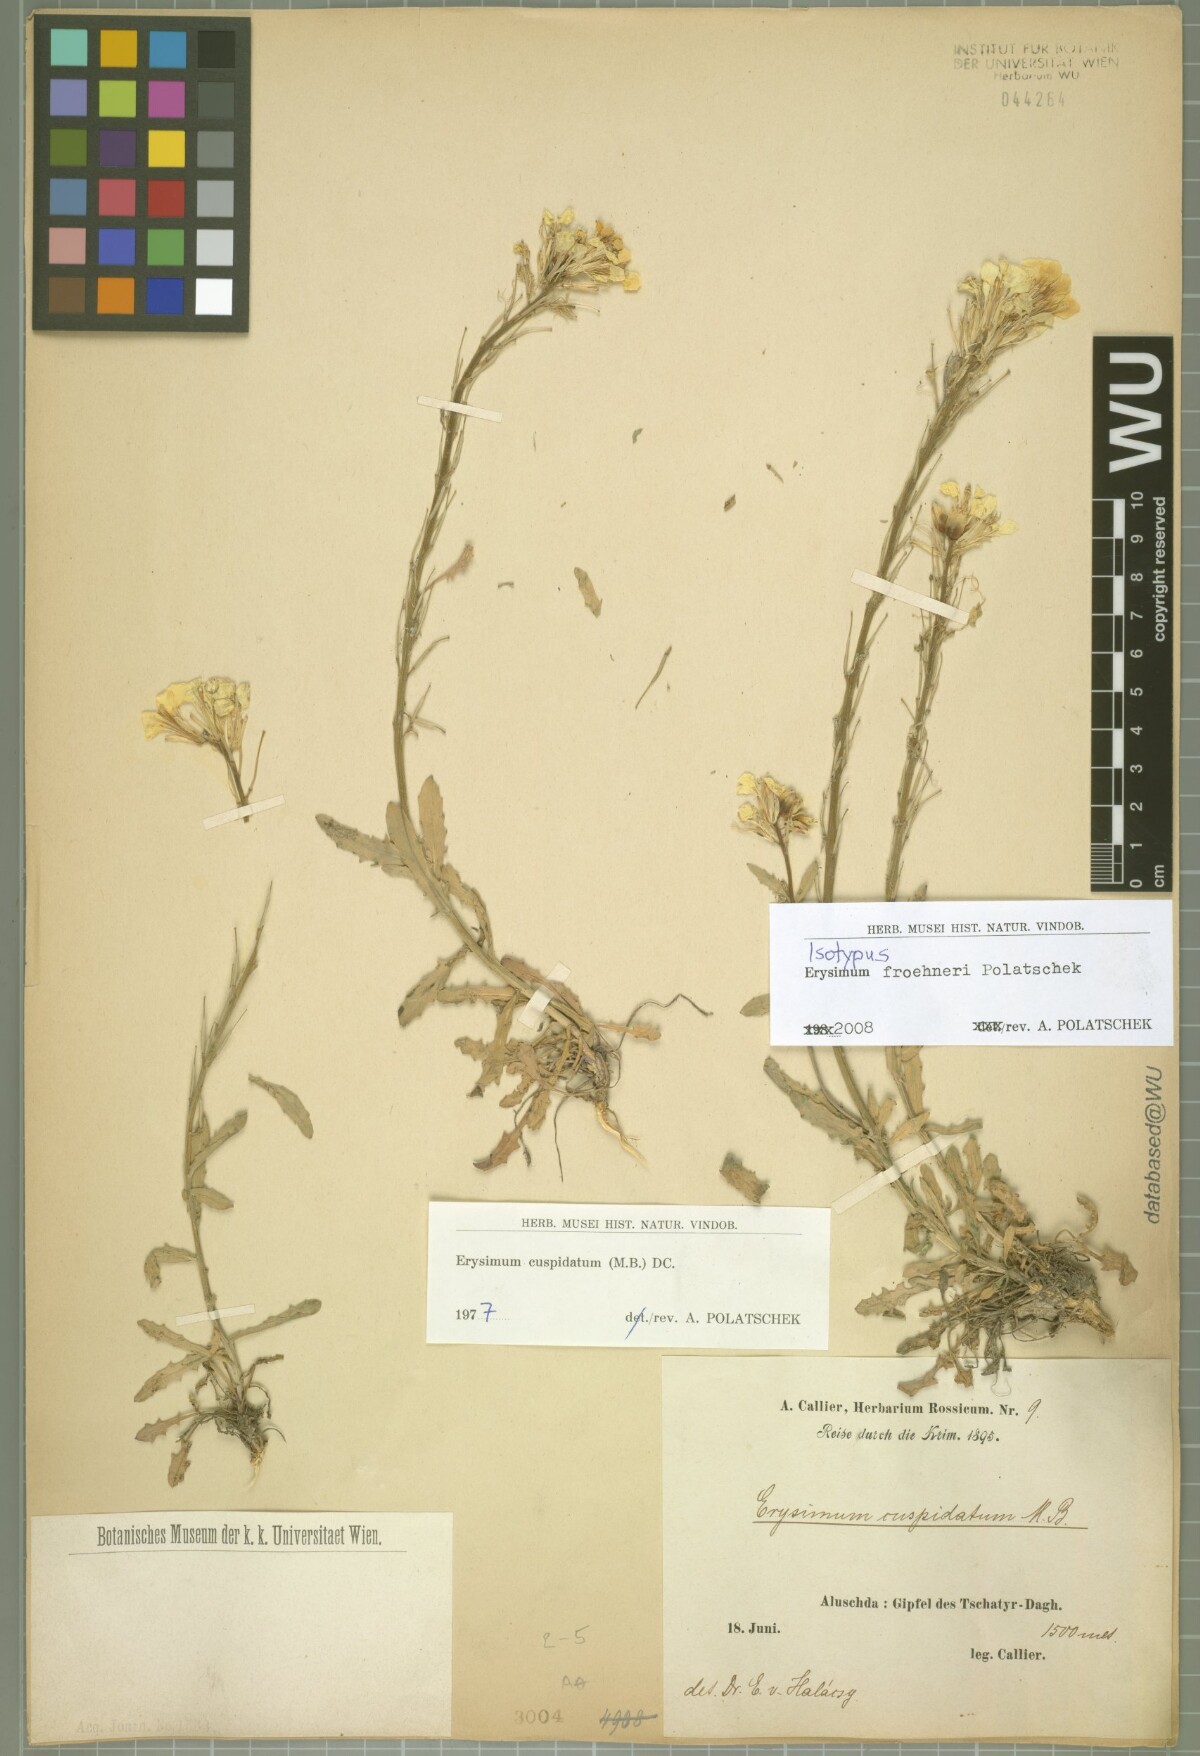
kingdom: Plantae
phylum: Tracheophyta
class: Magnoliopsida
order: Brassicales
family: Brassicaceae
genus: Erysimum
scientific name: Erysimum froehneri
